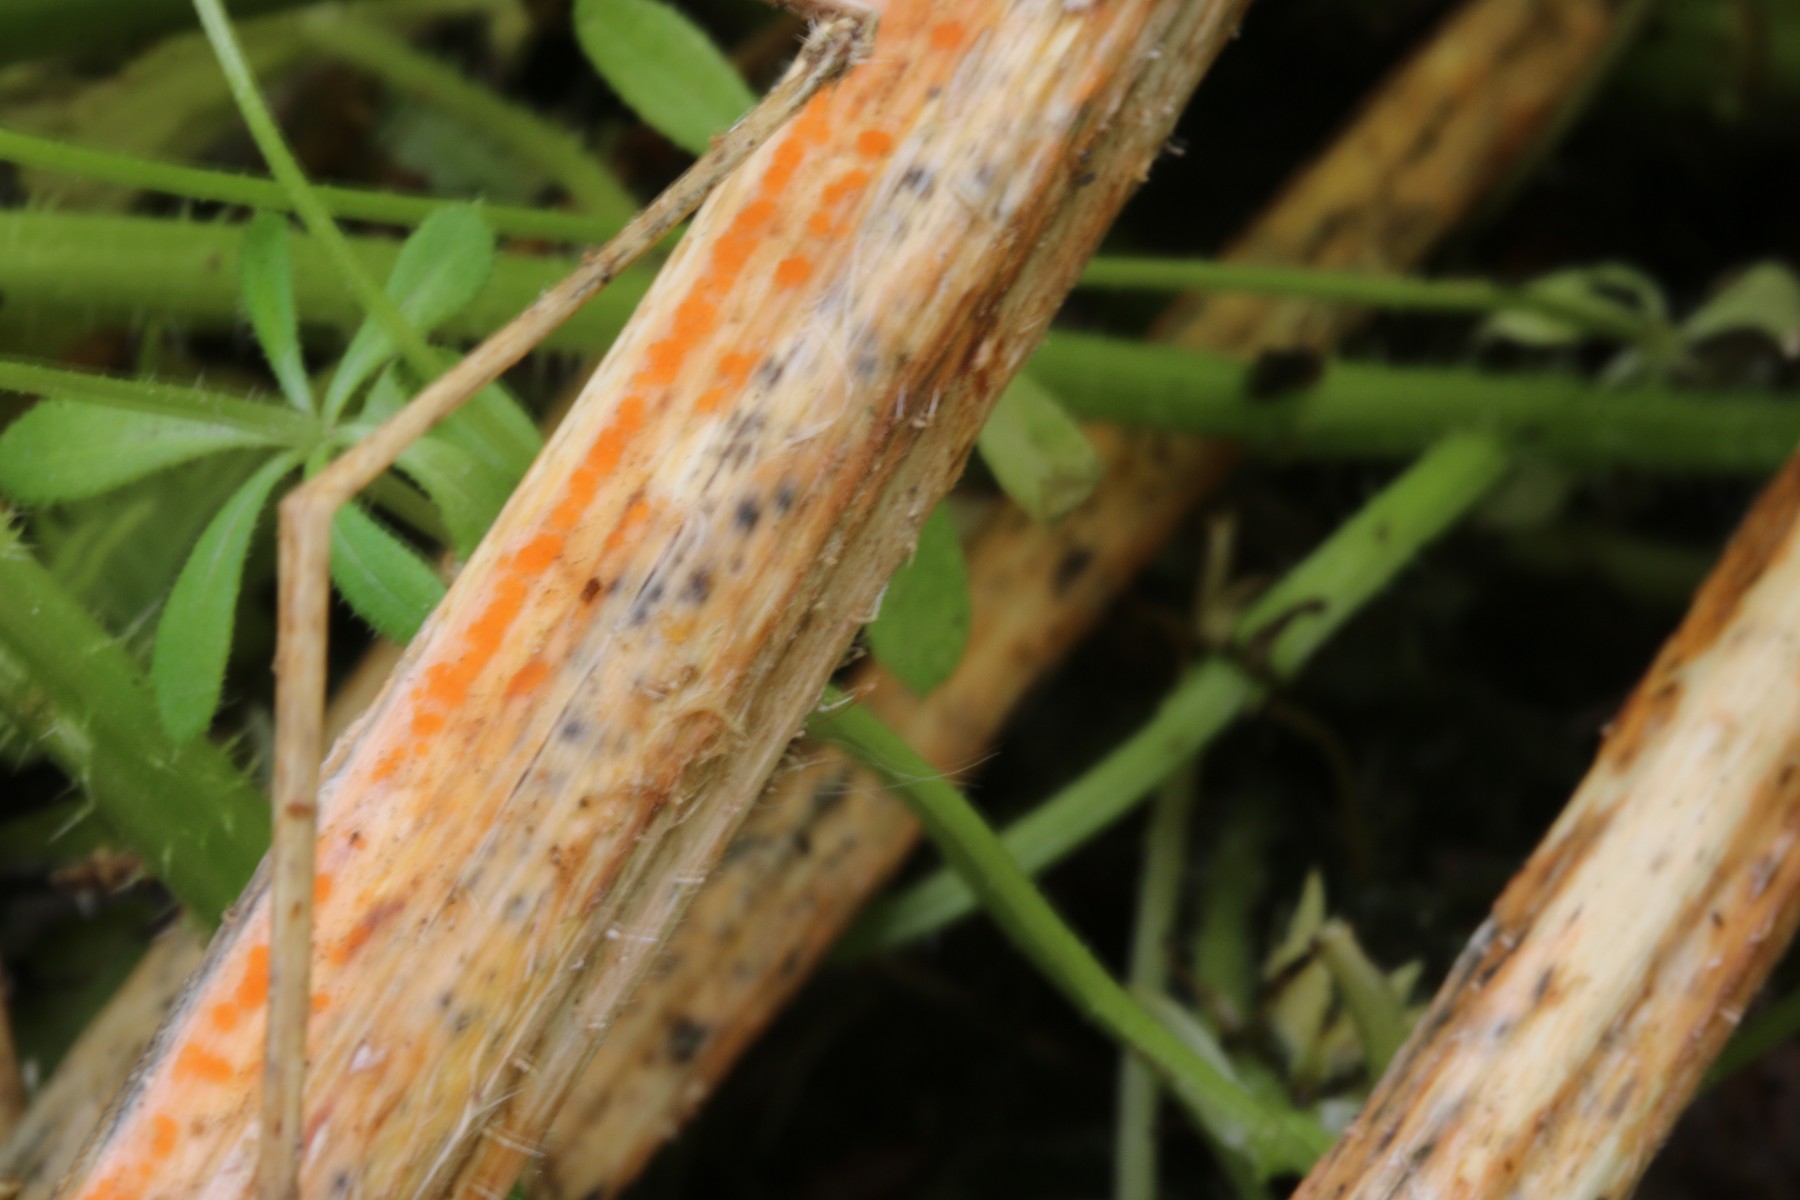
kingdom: Fungi
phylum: Ascomycota
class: Leotiomycetes
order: Helotiales
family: Calloriaceae
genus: Calloria
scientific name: Calloria urticae
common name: nælde-orangeskive
